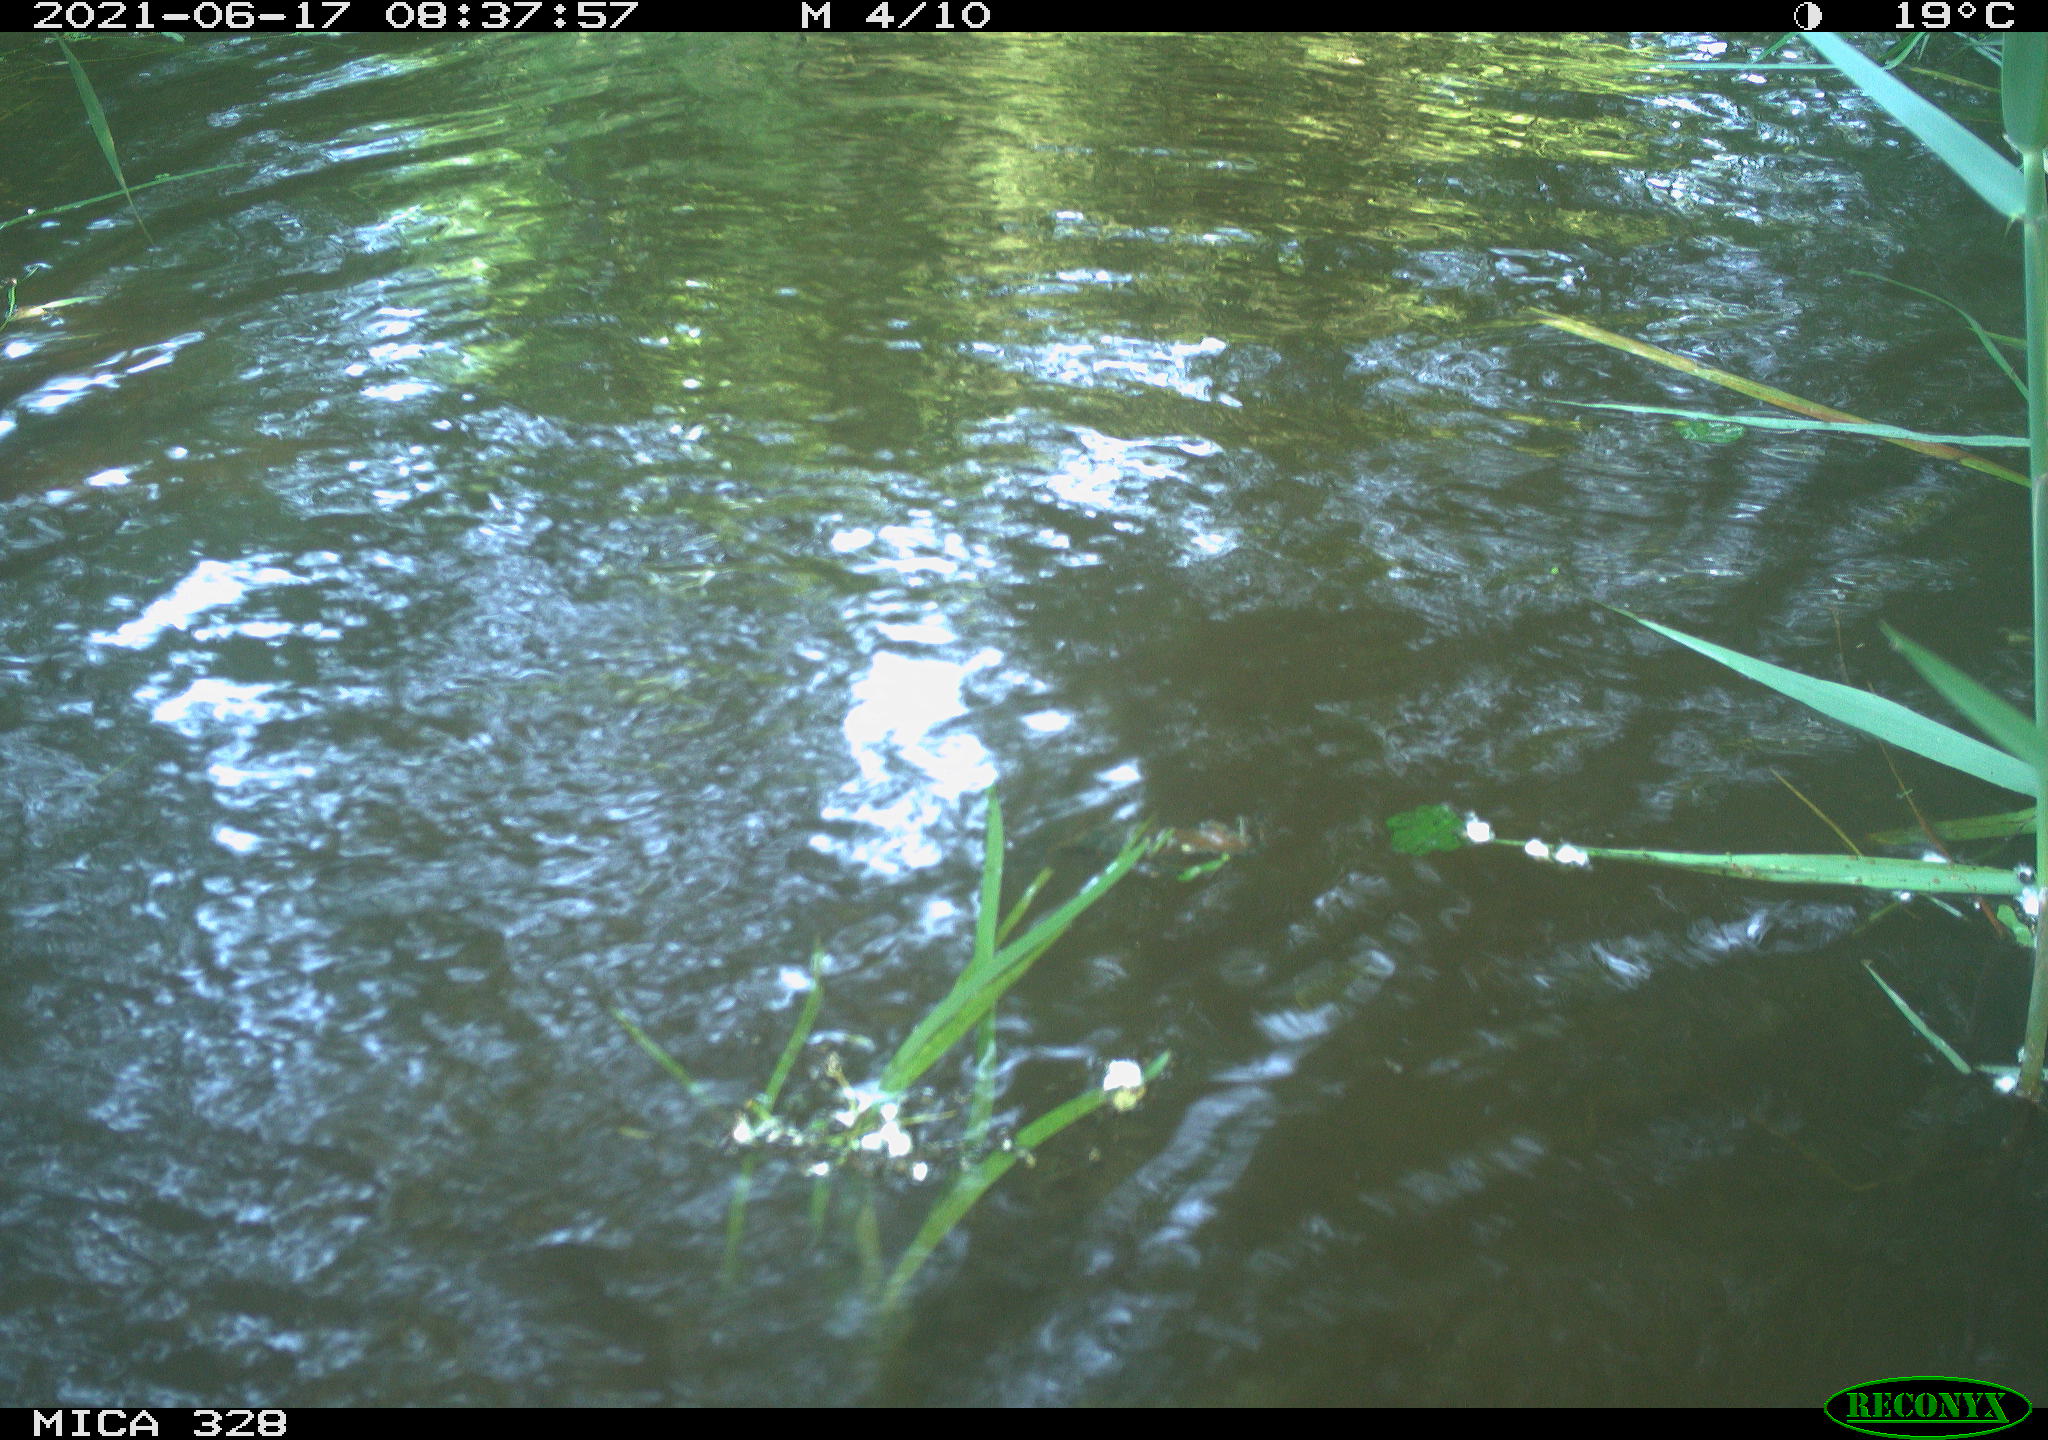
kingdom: Animalia
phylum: Chordata
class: Mammalia
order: Rodentia
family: Cricetidae
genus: Ondatra
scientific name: Ondatra zibethicus
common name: Muskrat
